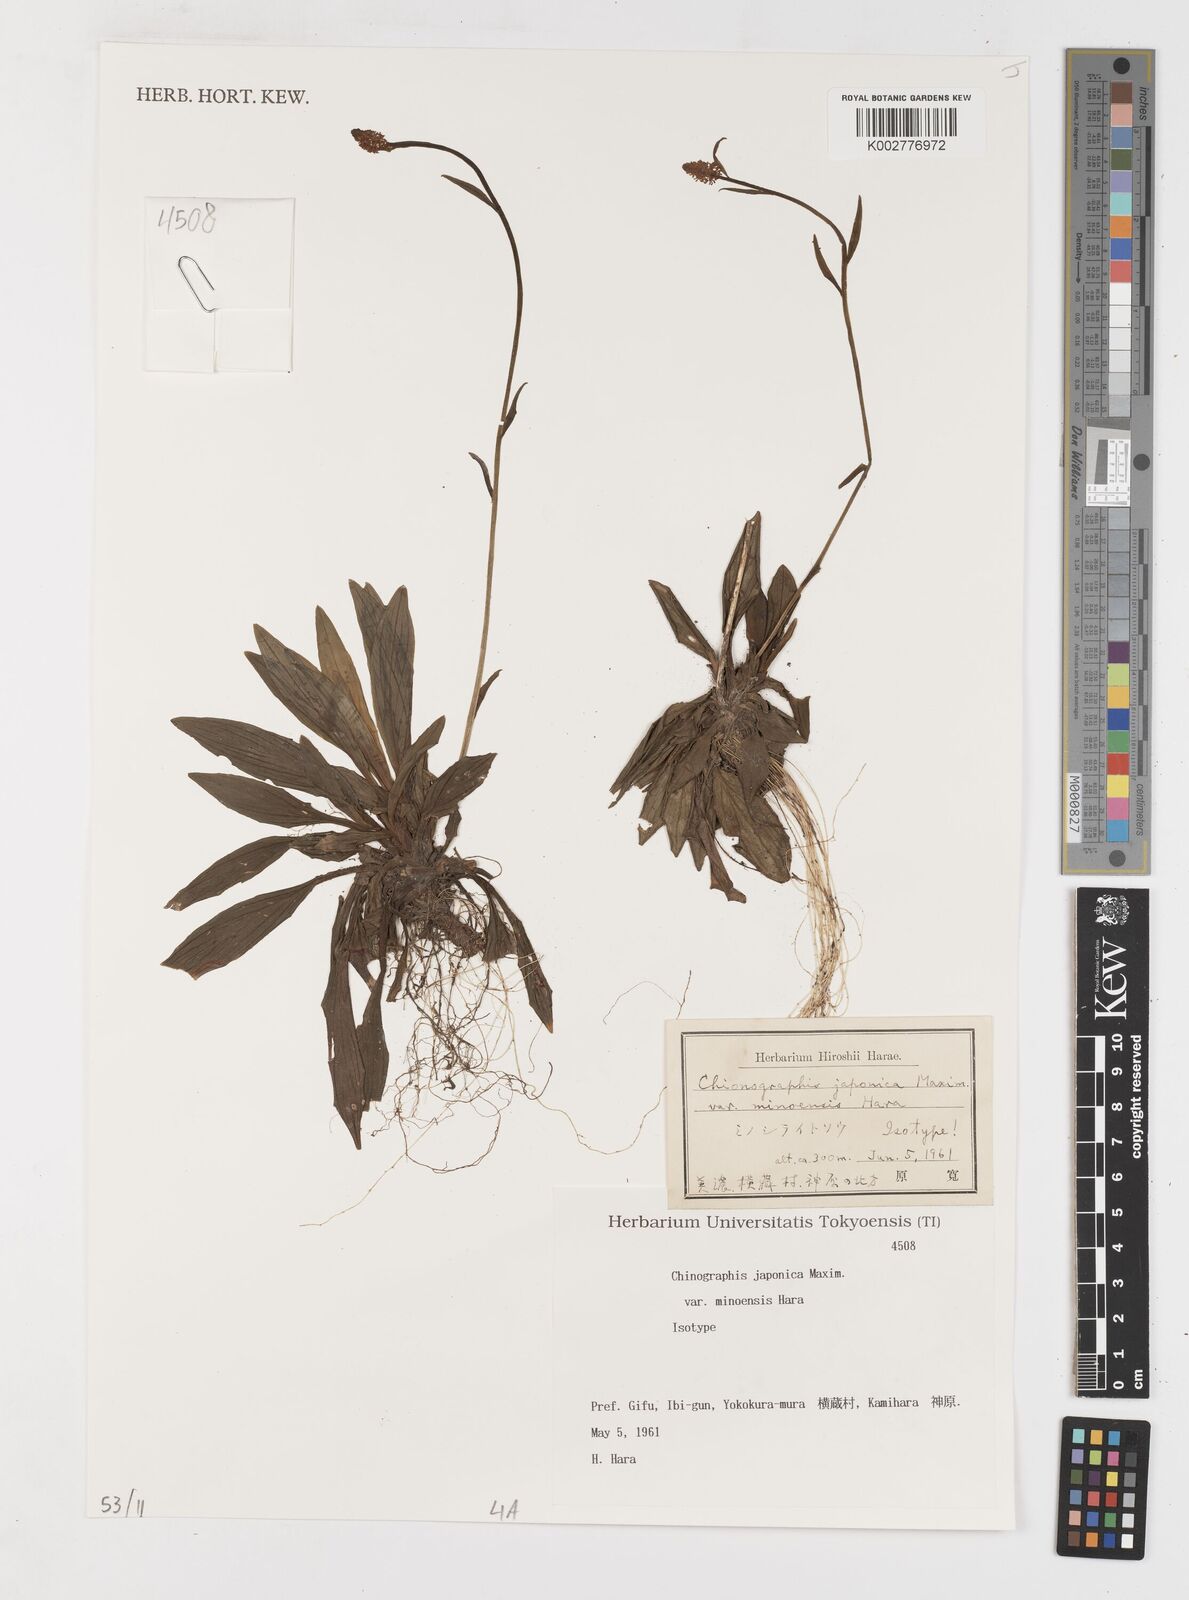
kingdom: Plantae
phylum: Tracheophyta
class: Liliopsida
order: Liliales
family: Melanthiaceae
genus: Chamaelirium
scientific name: Chamaelirium japonicum
